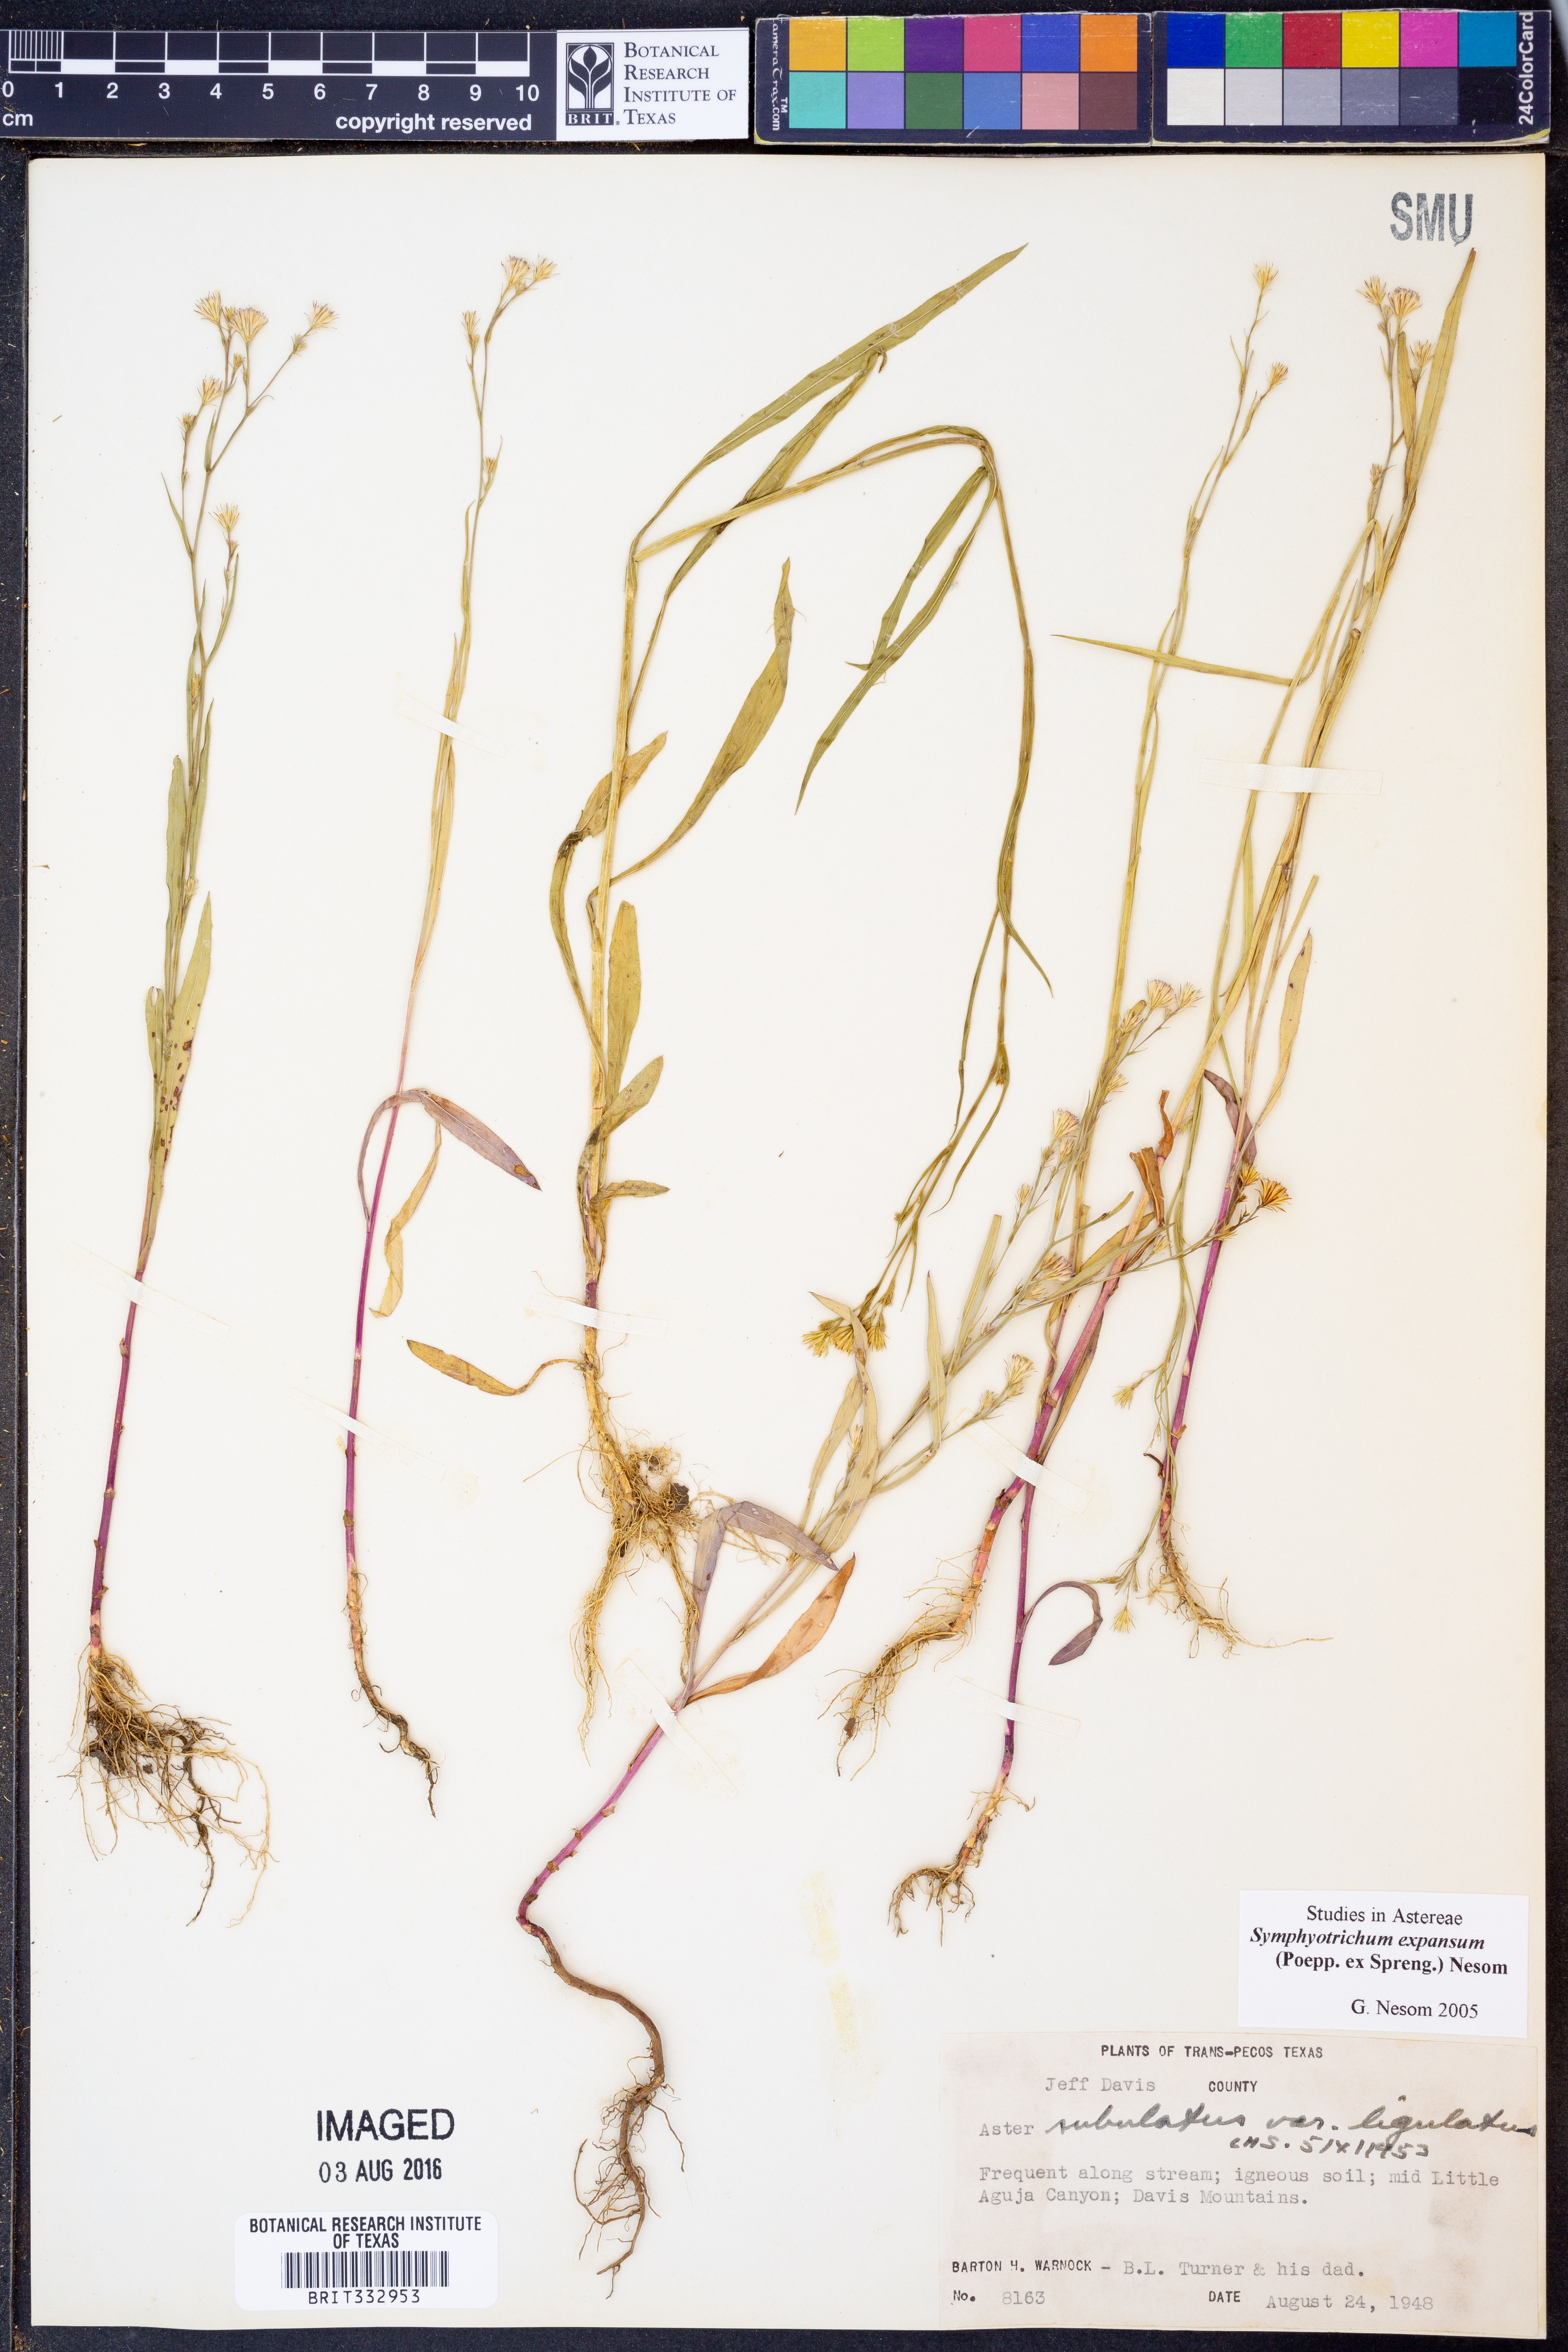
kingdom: Plantae
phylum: Tracheophyta
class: Magnoliopsida
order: Asterales
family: Asteraceae
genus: Symphyotrichum
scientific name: Symphyotrichum expansum
